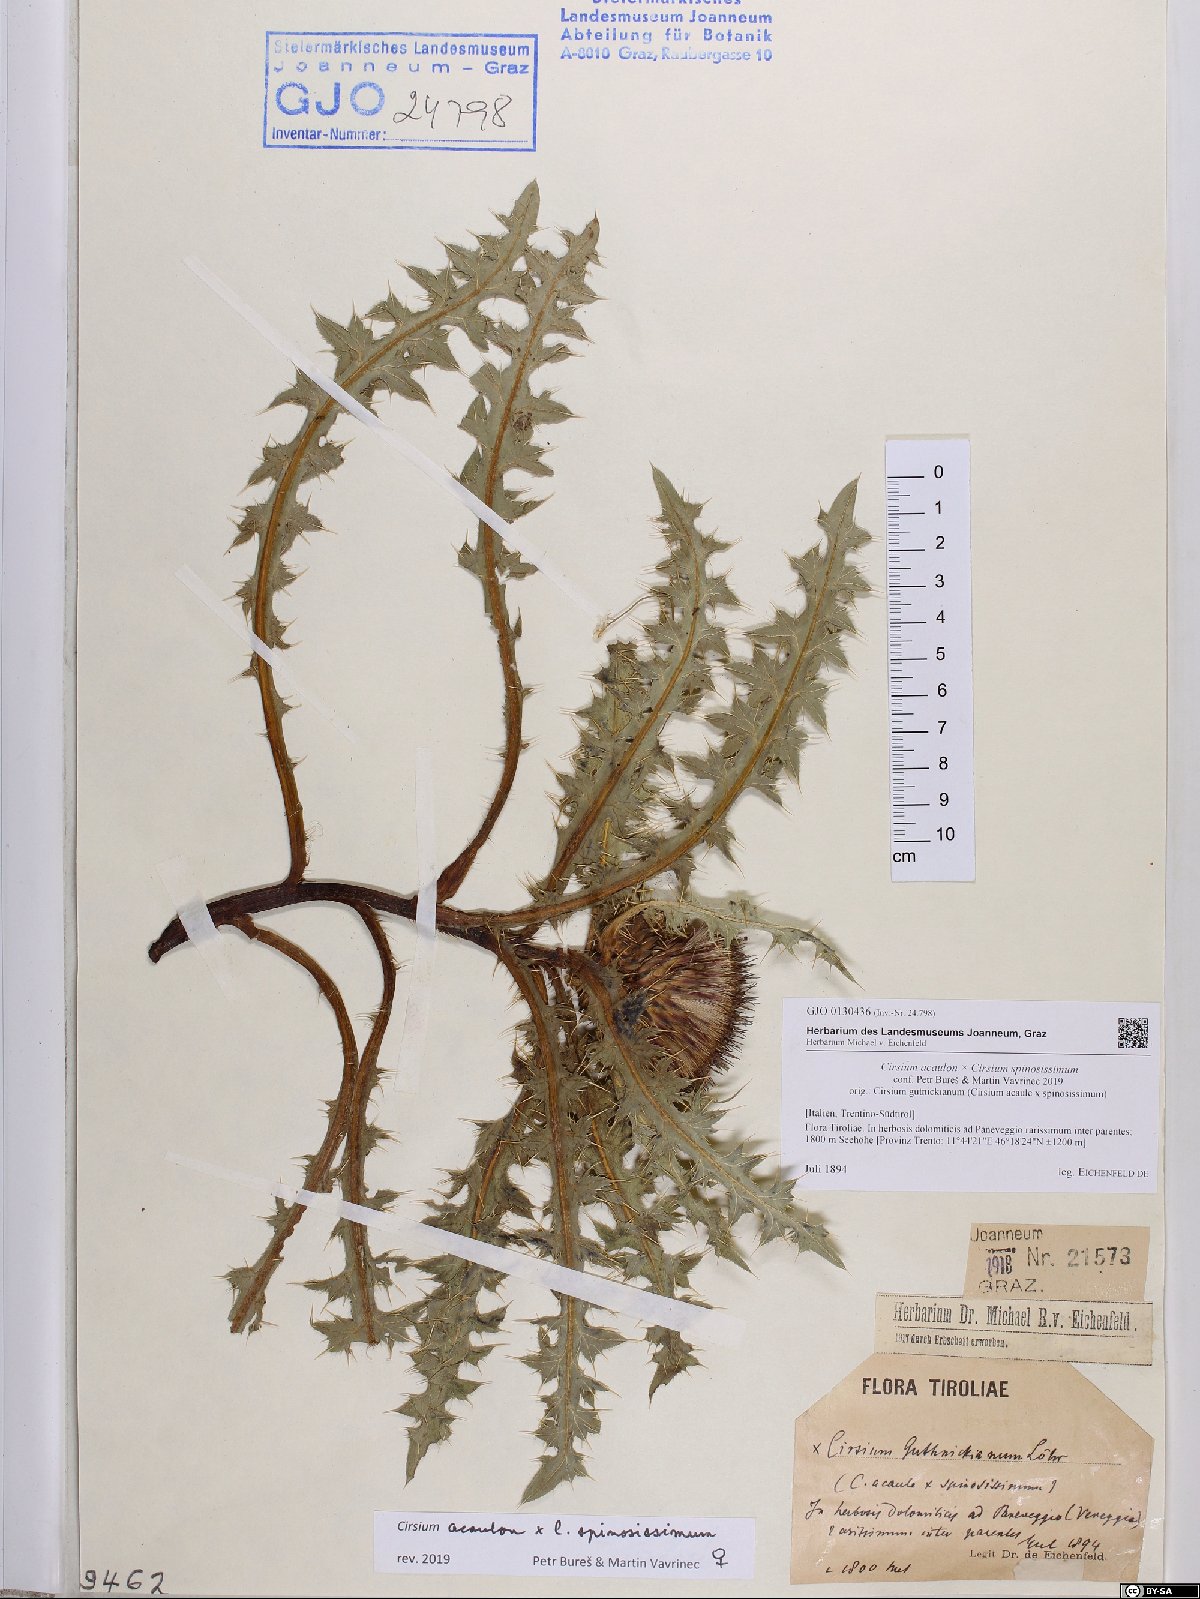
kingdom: Plantae
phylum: Tracheophyta
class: Magnoliopsida
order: Asterales
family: Asteraceae
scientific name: Asteraceae
